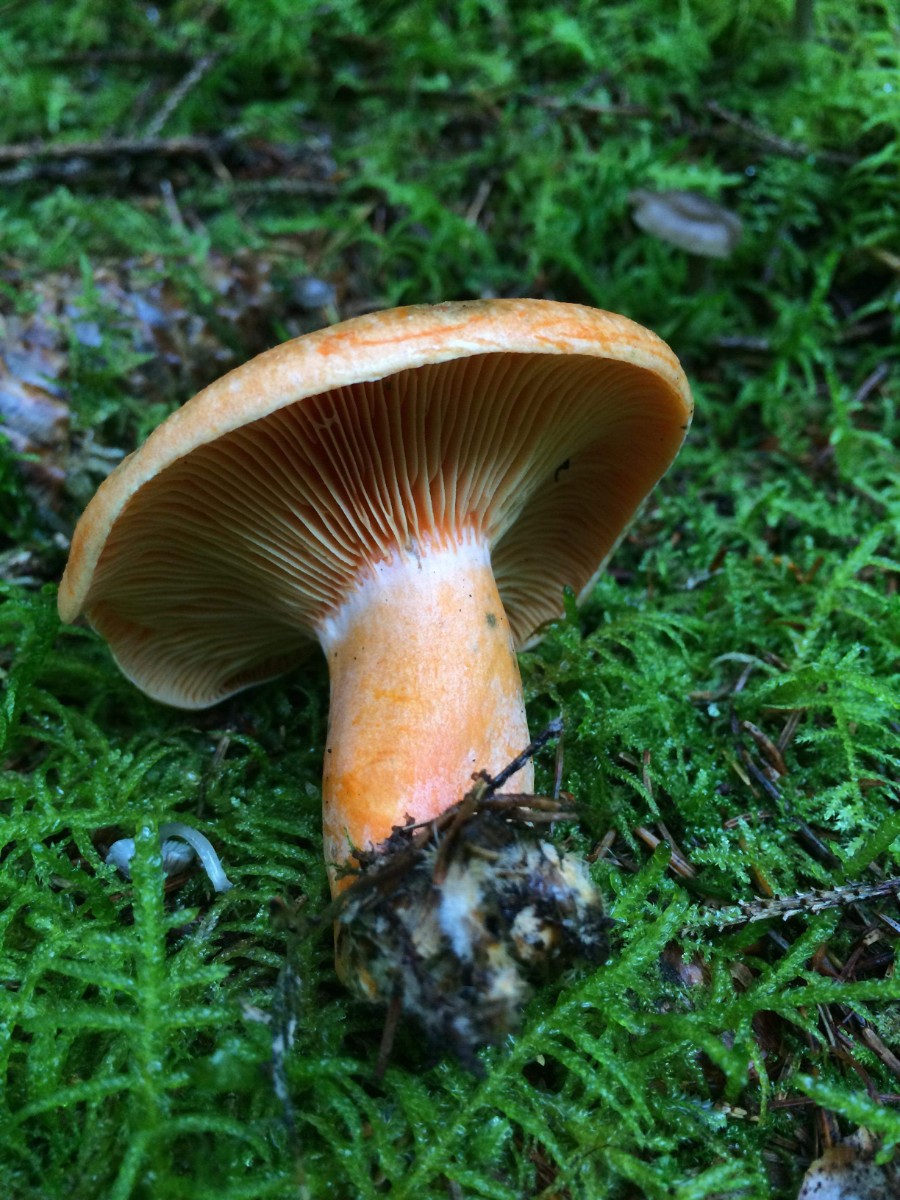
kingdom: Fungi
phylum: Basidiomycota
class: Agaricomycetes
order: Russulales
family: Russulaceae
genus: Lactarius
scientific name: Lactarius deterrimus
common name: gran-mælkehat
